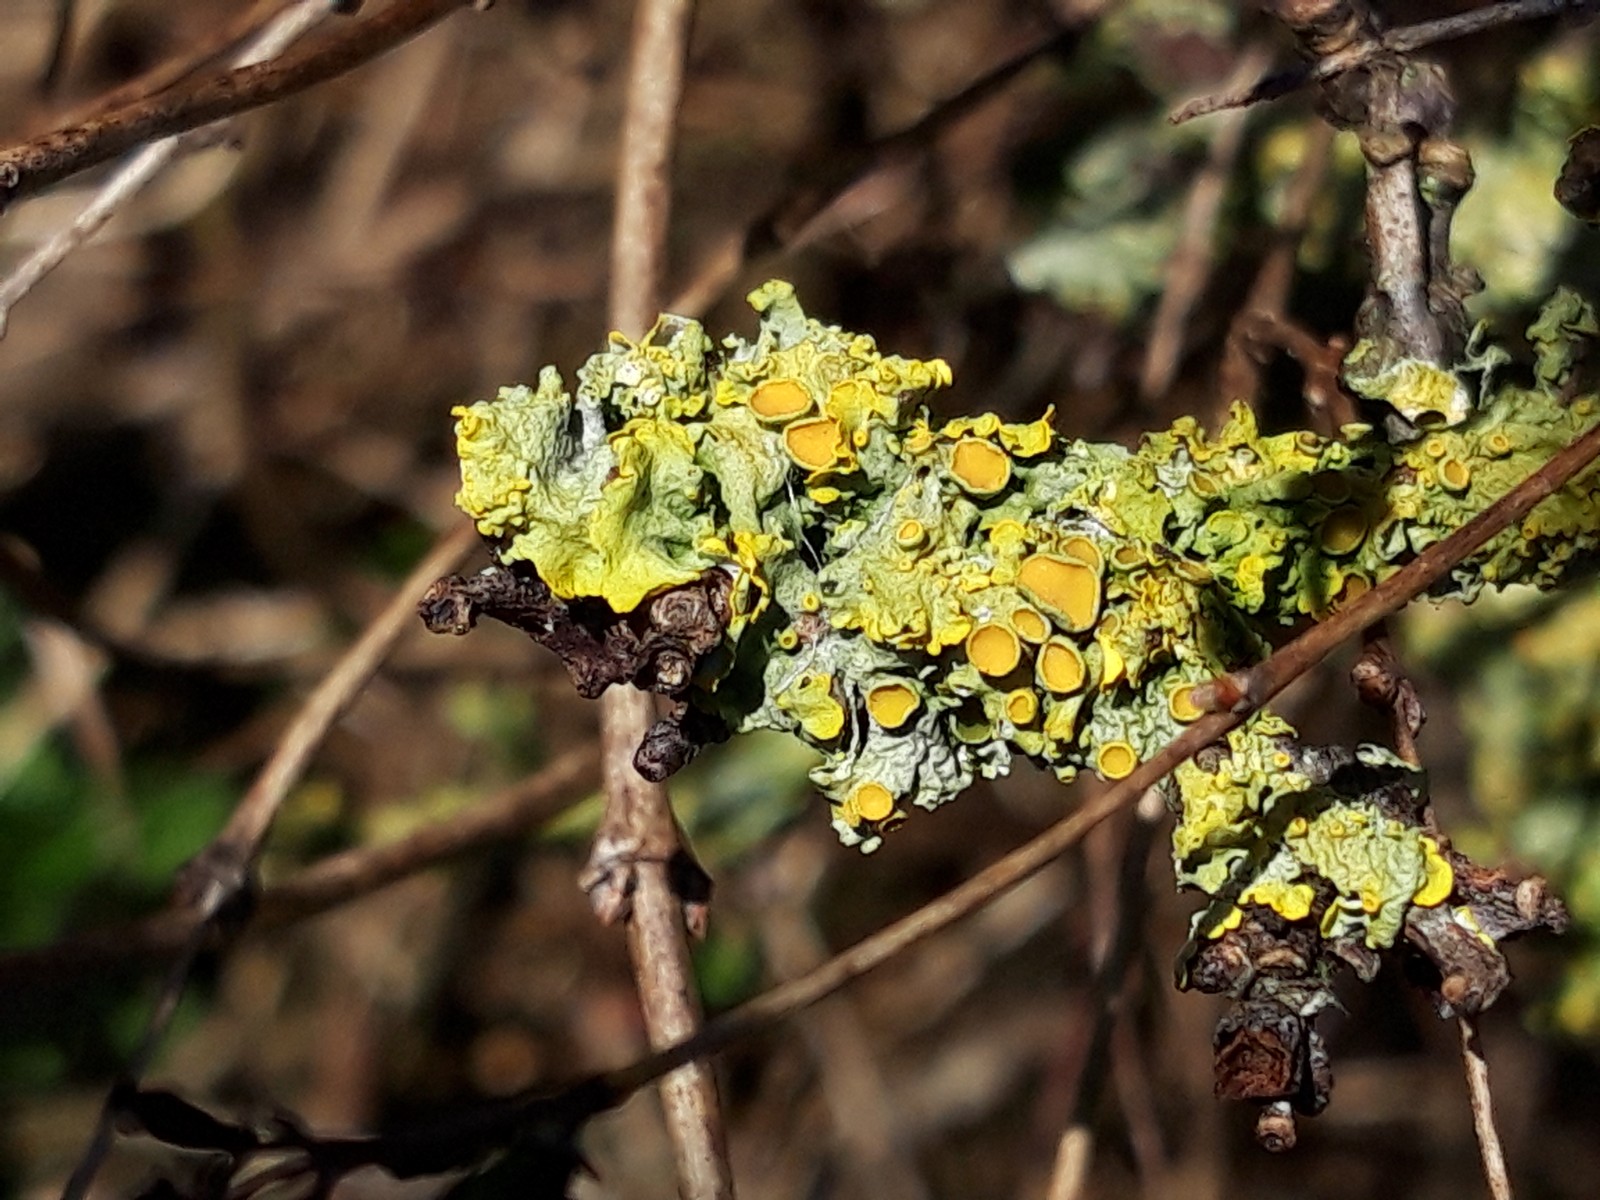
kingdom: Fungi
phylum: Ascomycota
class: Lecanoromycetes
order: Teloschistales
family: Teloschistaceae
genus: Xanthoria
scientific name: Xanthoria parietina
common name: almindelig væggelav
